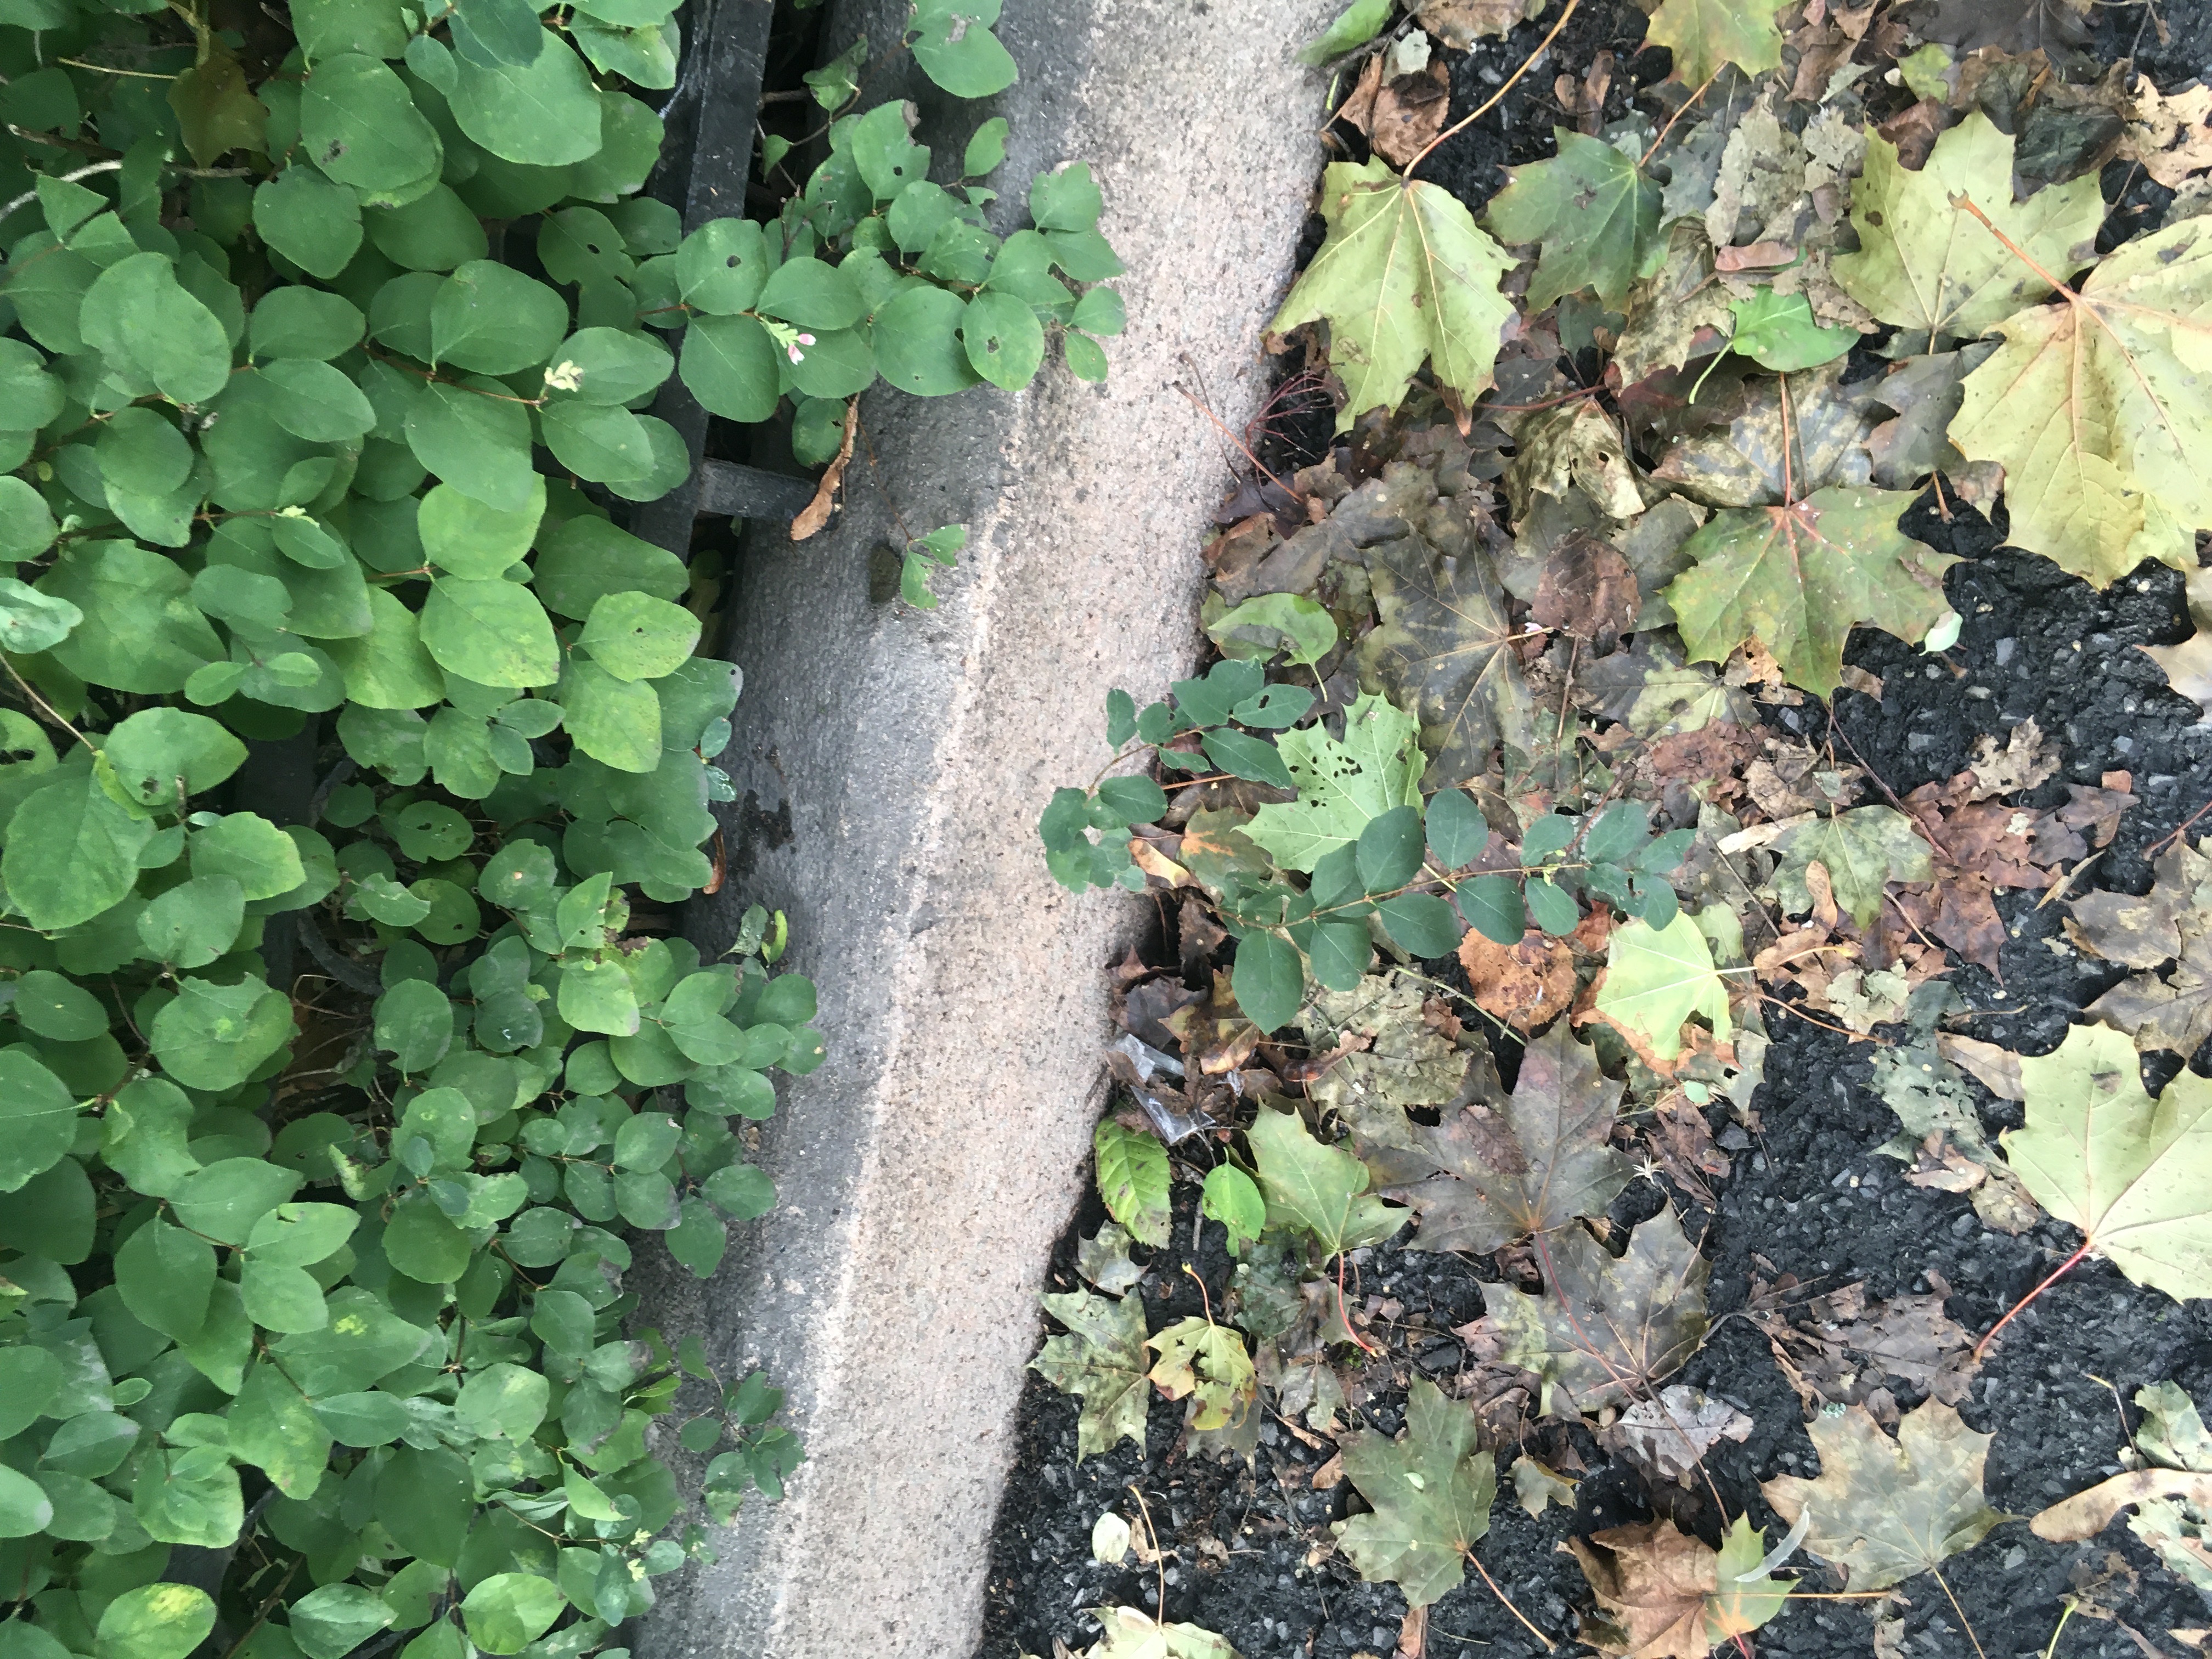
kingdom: Plantae
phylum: Tracheophyta
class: Magnoliopsida
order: Dipsacales
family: Caprifoliaceae
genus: Symphoricarpos
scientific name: Symphoricarpos albus
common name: snøbær
